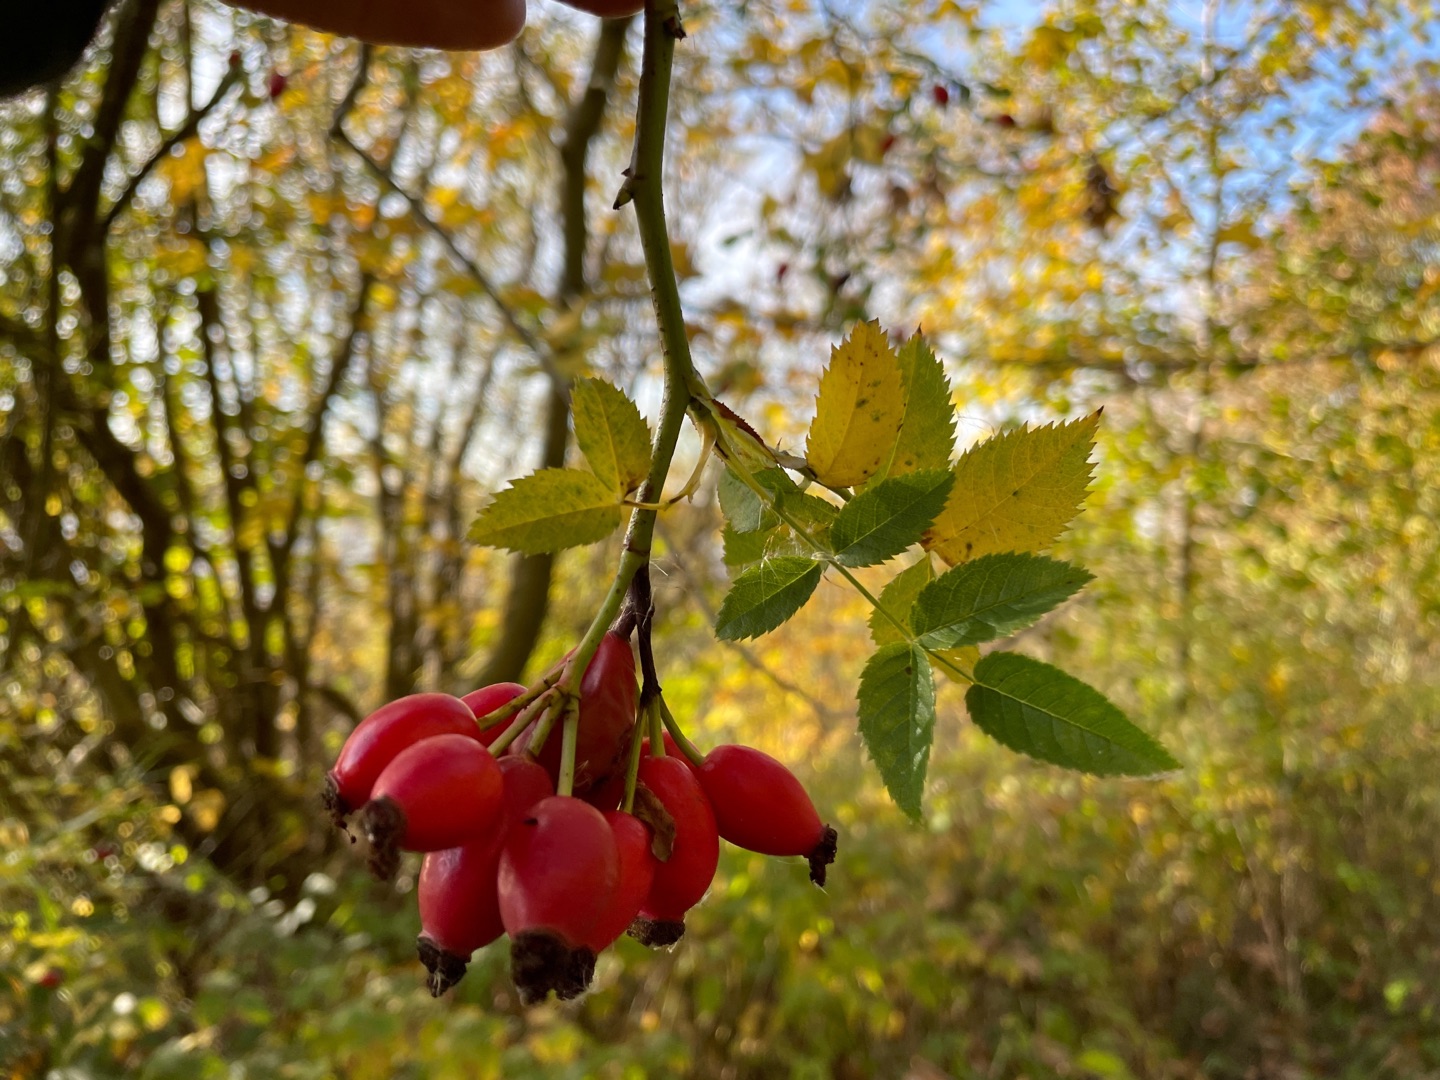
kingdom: Plantae
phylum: Tracheophyta
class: Magnoliopsida
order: Rosales
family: Rosaceae
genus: Rosa
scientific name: Rosa canina
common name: Hunde-rose
